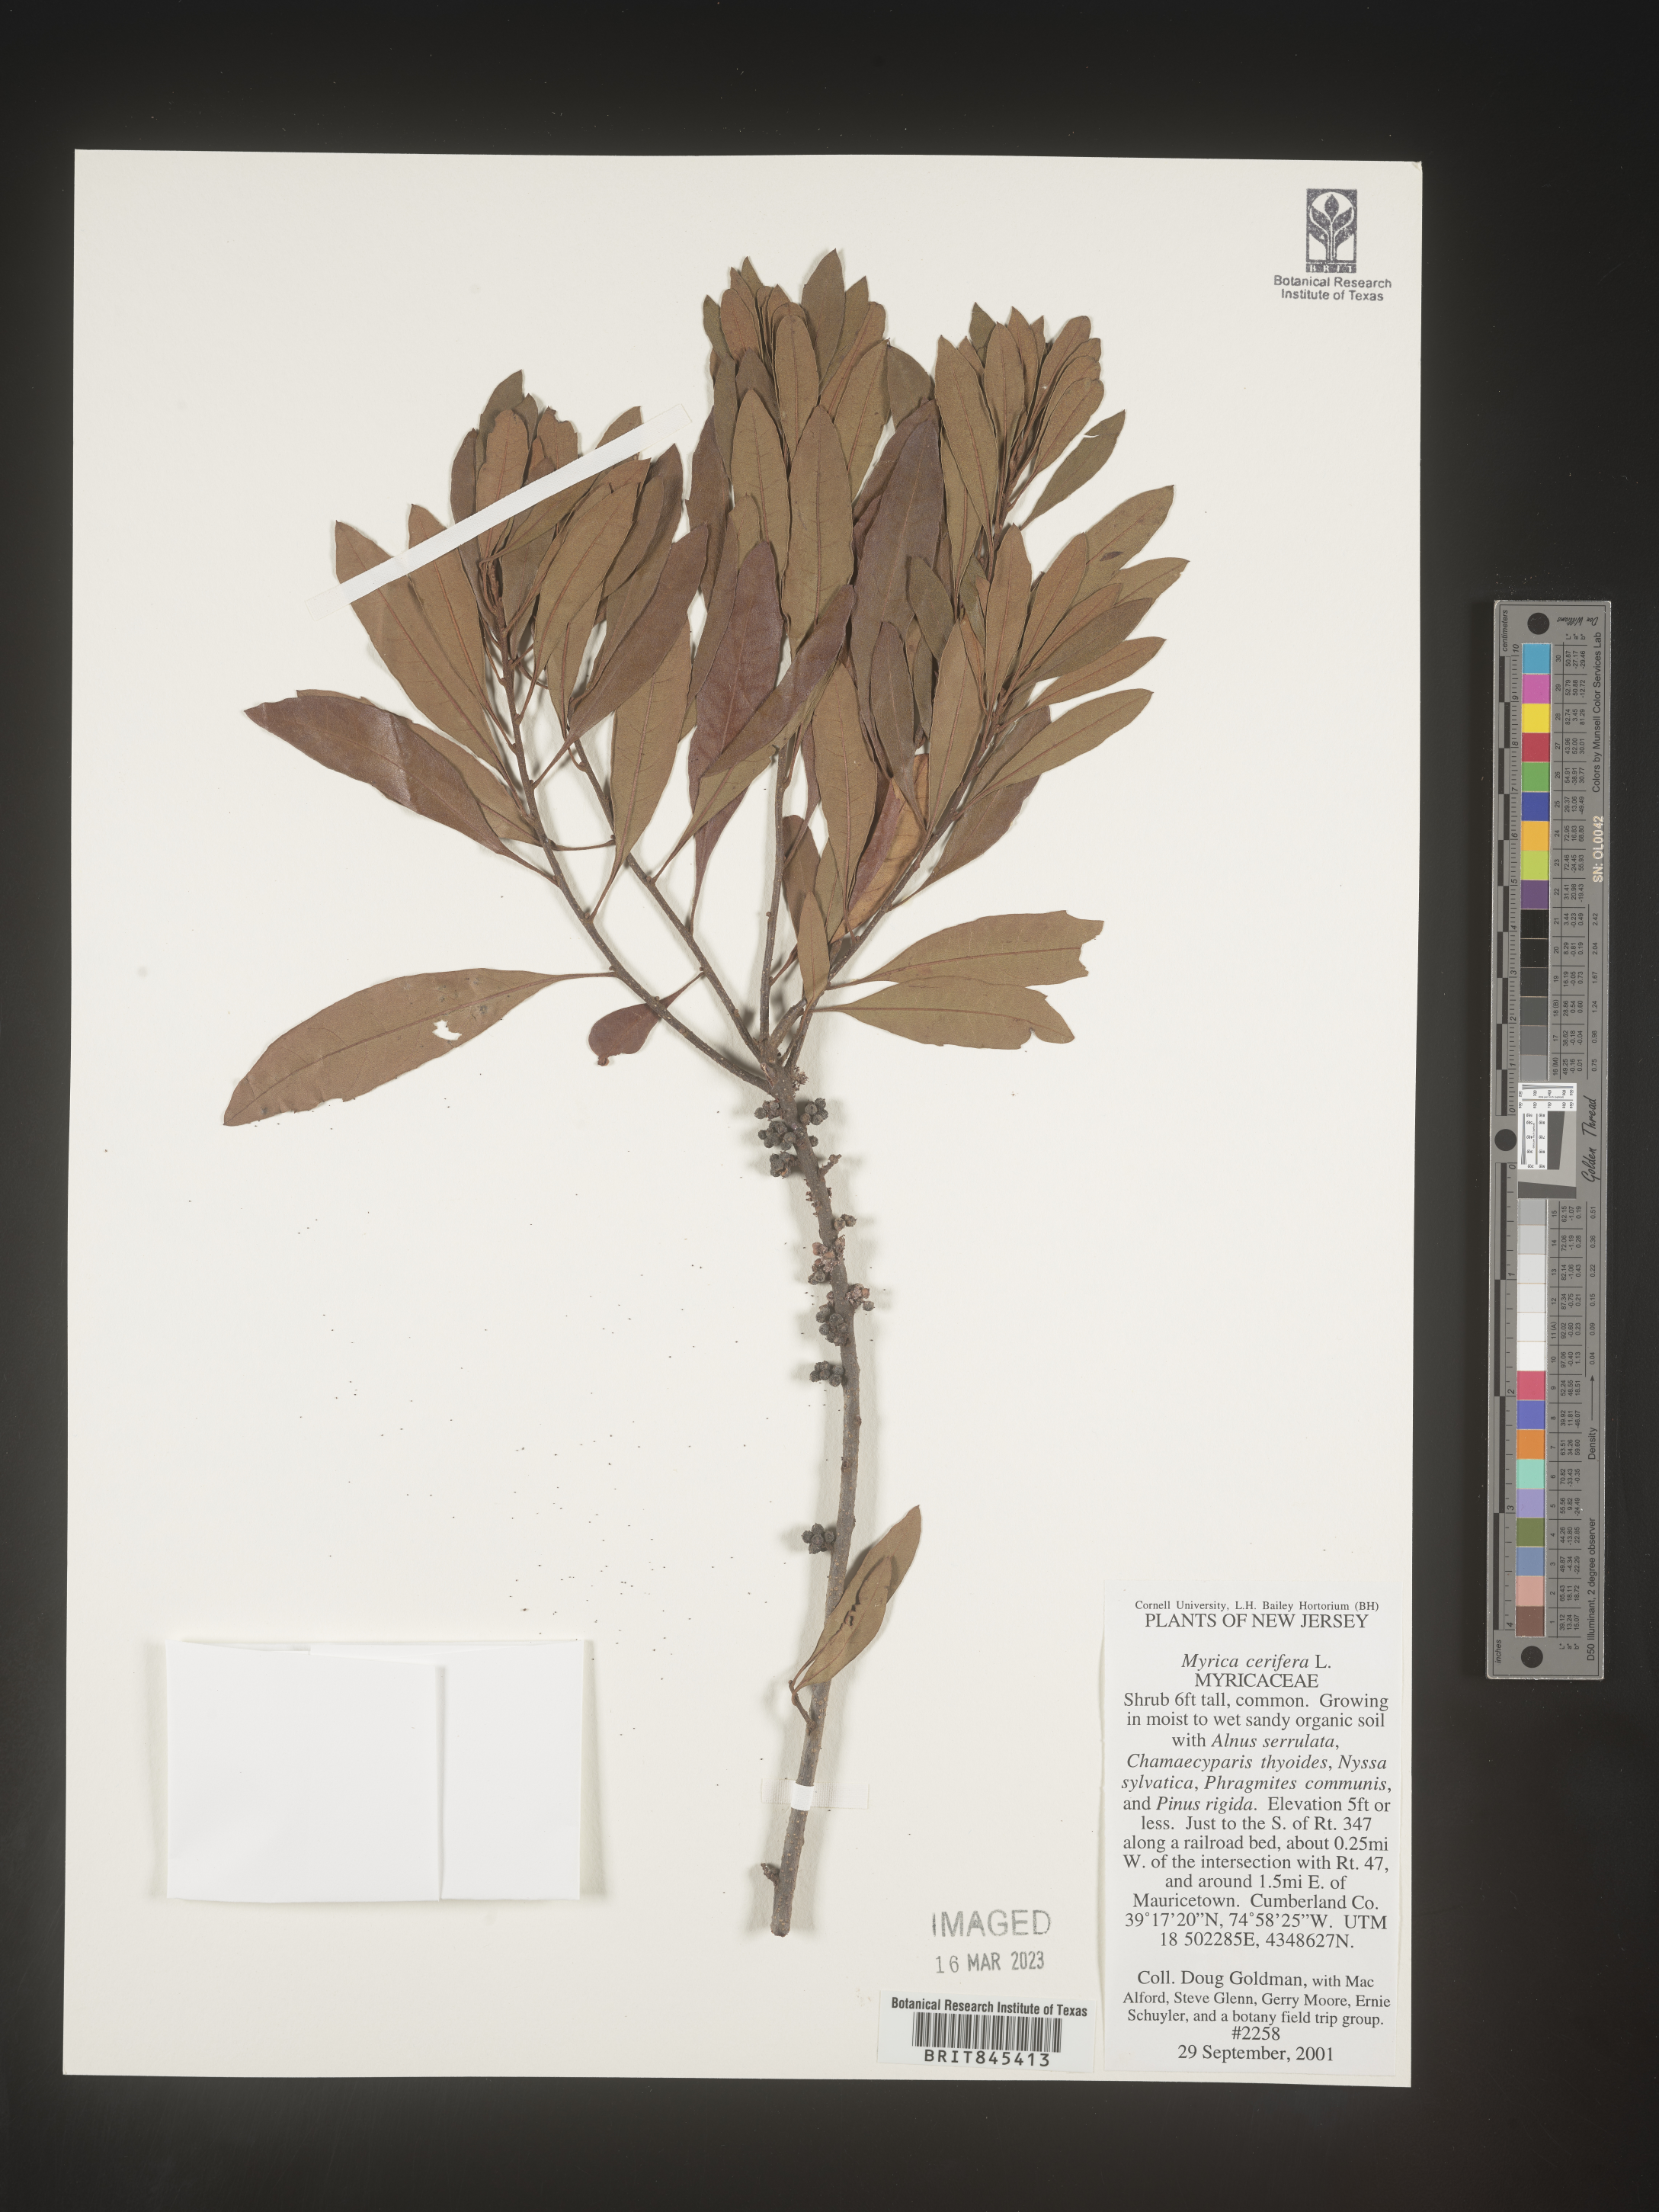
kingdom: Plantae
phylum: Tracheophyta
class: Magnoliopsida
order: Fagales
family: Myricaceae
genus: Morella
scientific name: Morella cerifera
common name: Wax myrtle
